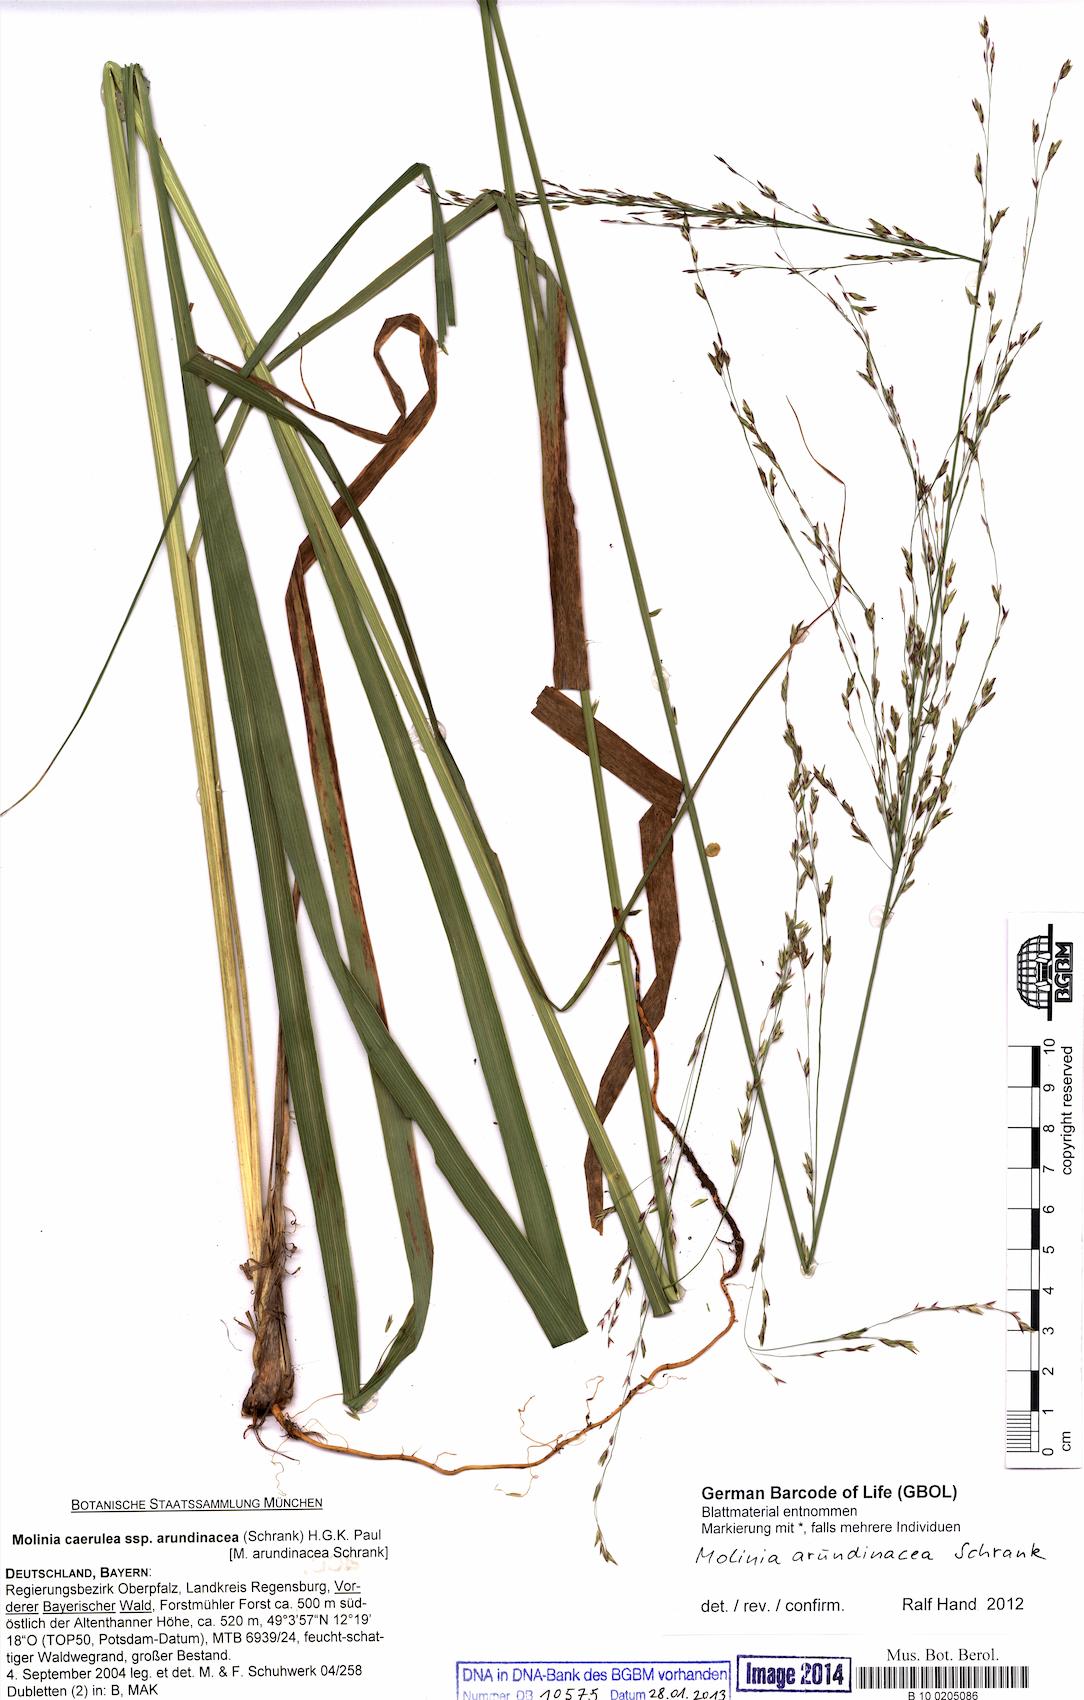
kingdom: Plantae
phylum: Tracheophyta
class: Liliopsida
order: Poales
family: Poaceae
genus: Molinia
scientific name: Molinia arundinacea
